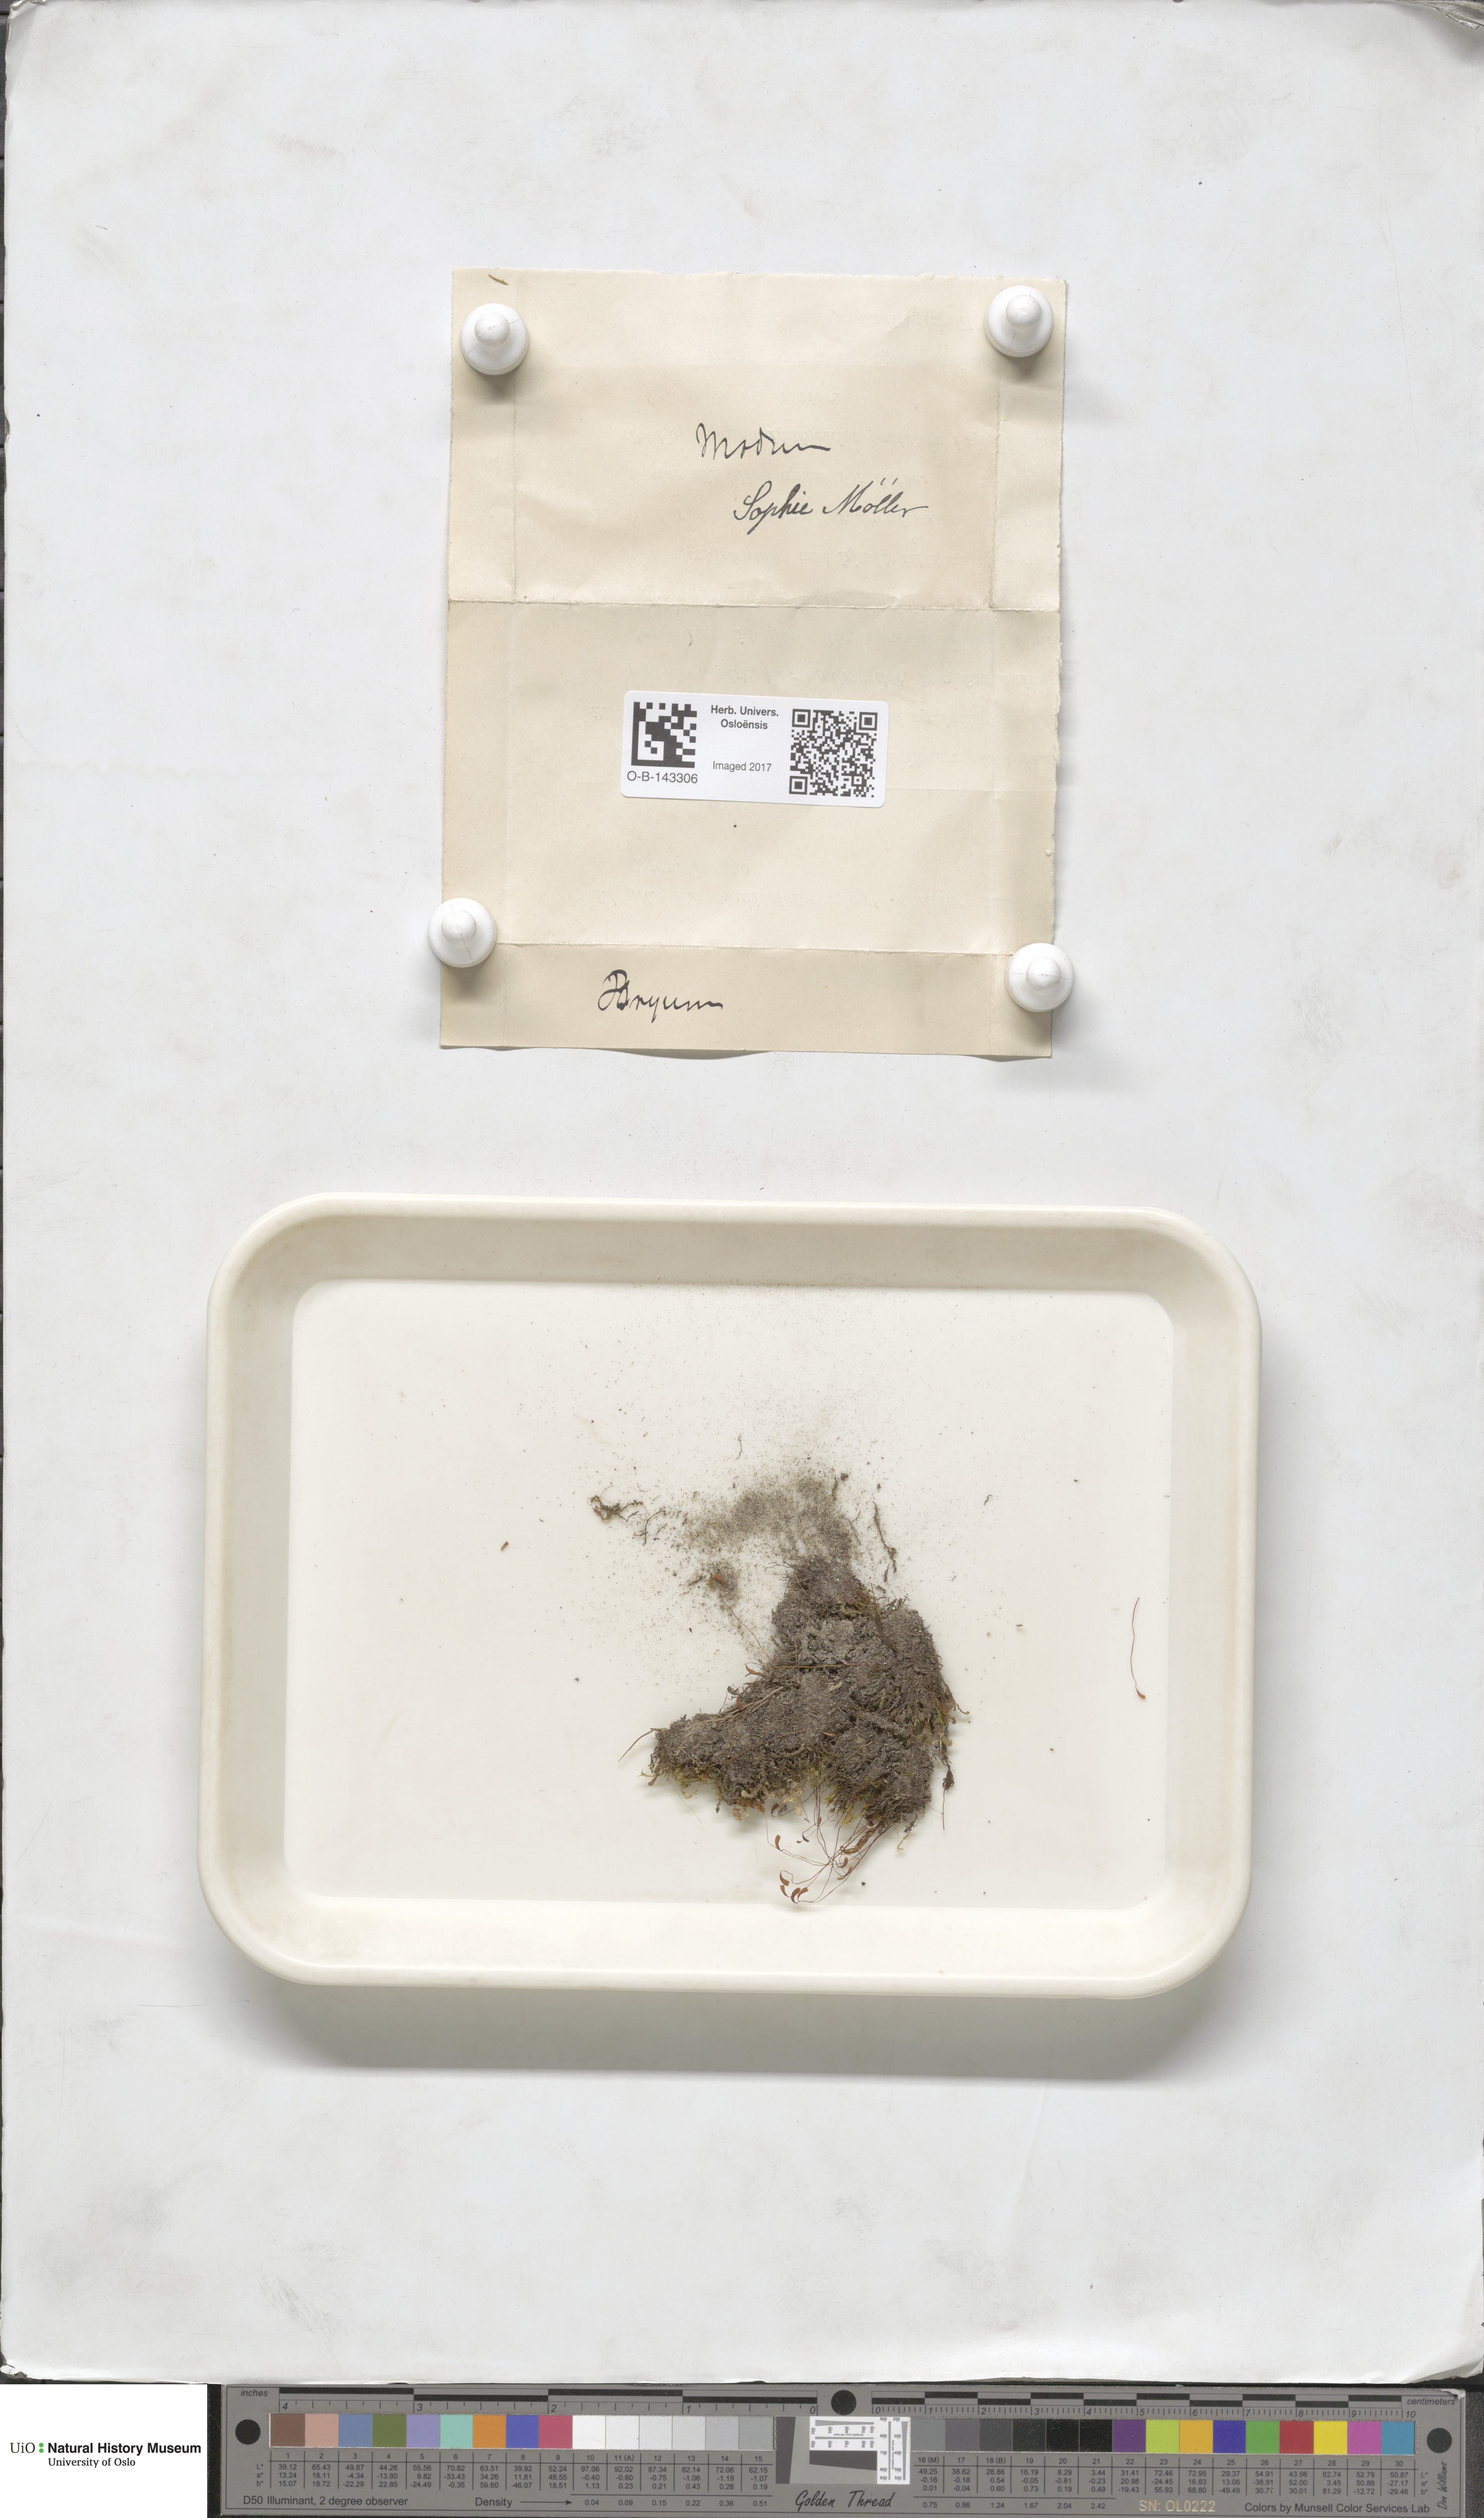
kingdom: Plantae
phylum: Bryophyta
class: Bryopsida
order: Bryales
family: Bryaceae
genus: Bryum
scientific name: Bryum
